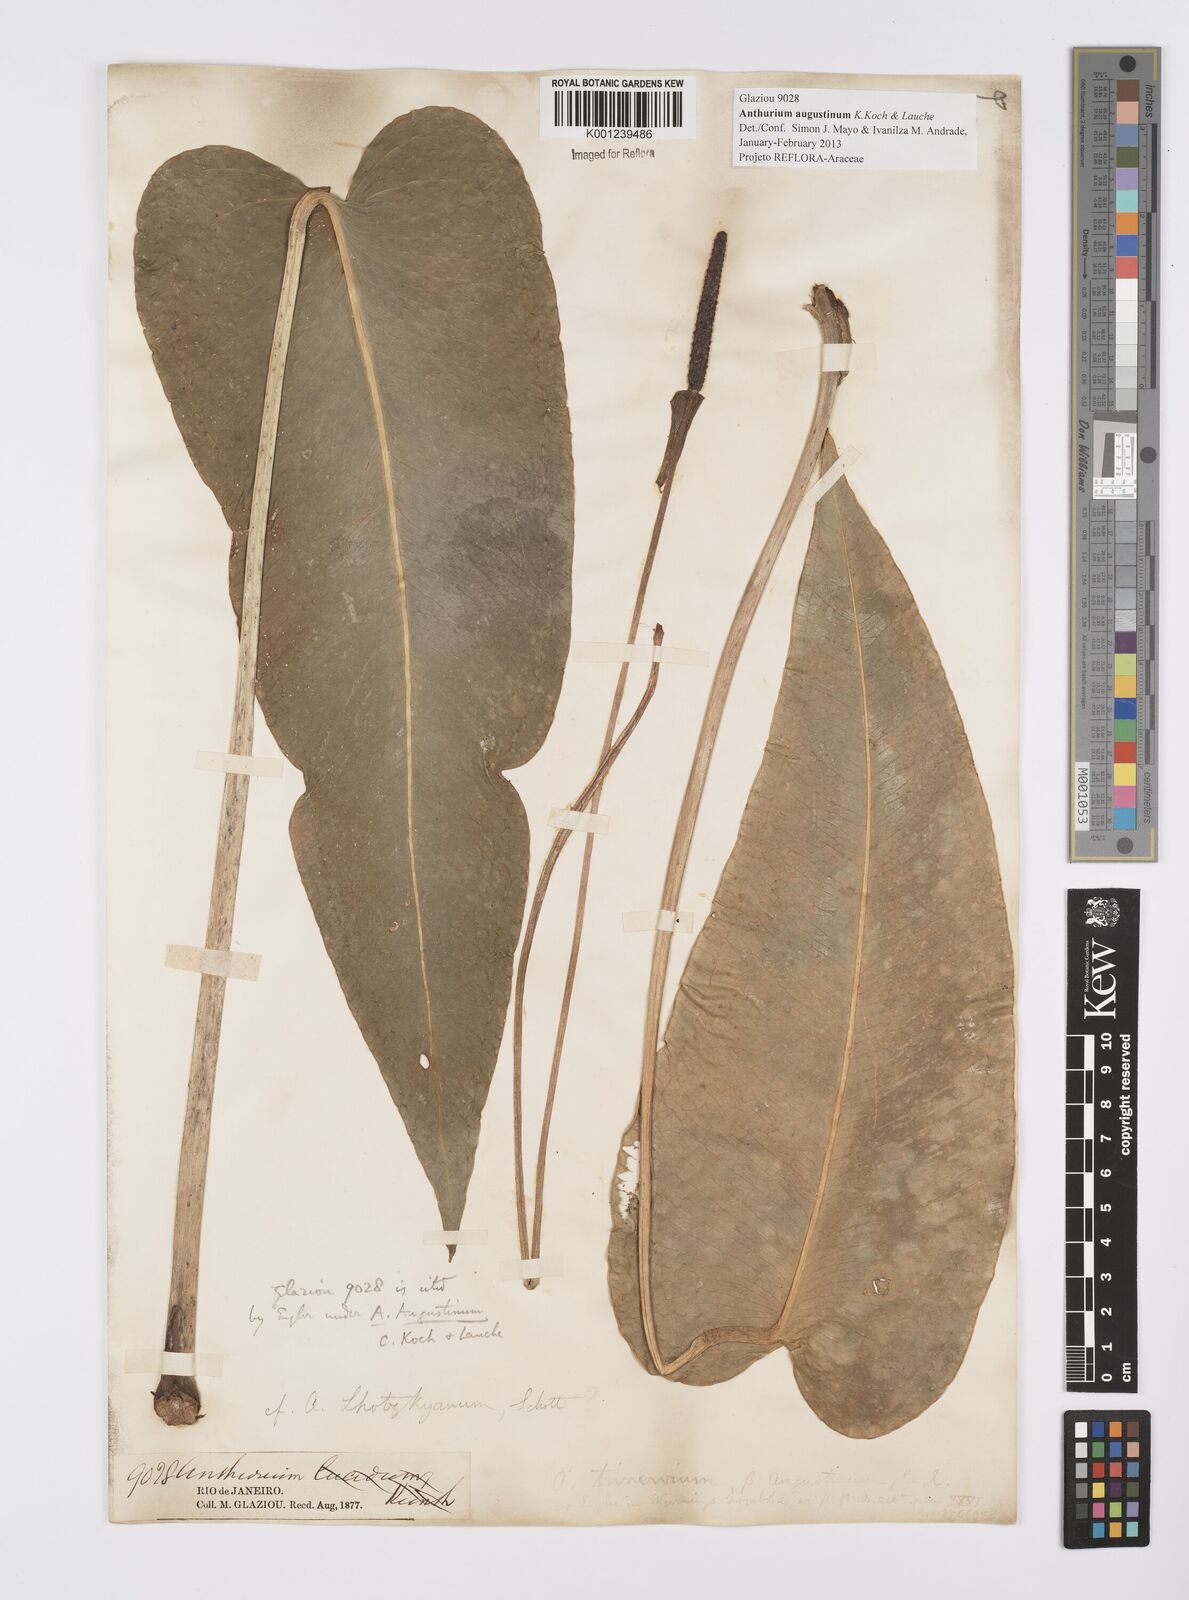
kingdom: Plantae
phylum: Tracheophyta
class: Liliopsida
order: Alismatales
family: Araceae
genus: Anthurium
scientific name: Anthurium augustinum
